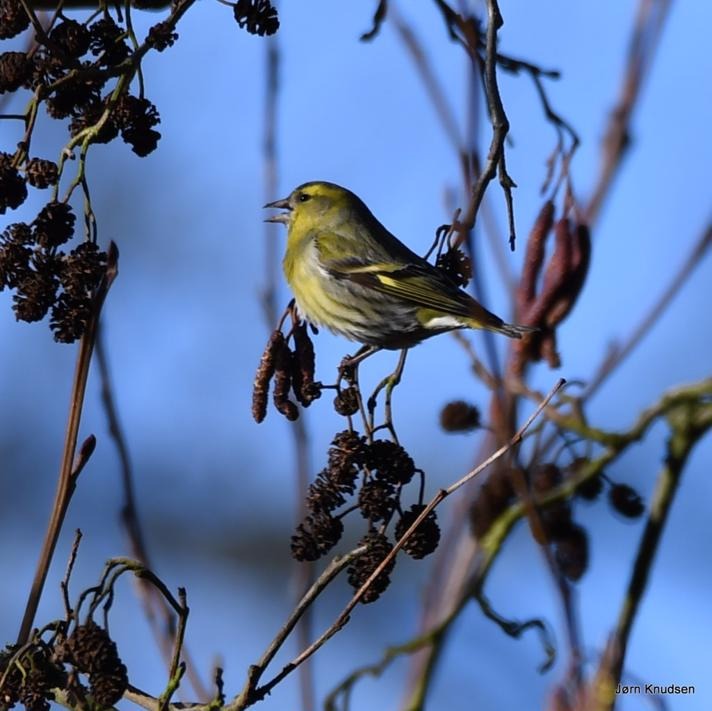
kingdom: Animalia
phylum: Chordata
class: Aves
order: Passeriformes
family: Fringillidae
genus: Spinus
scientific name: Spinus spinus
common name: Grønsisken
